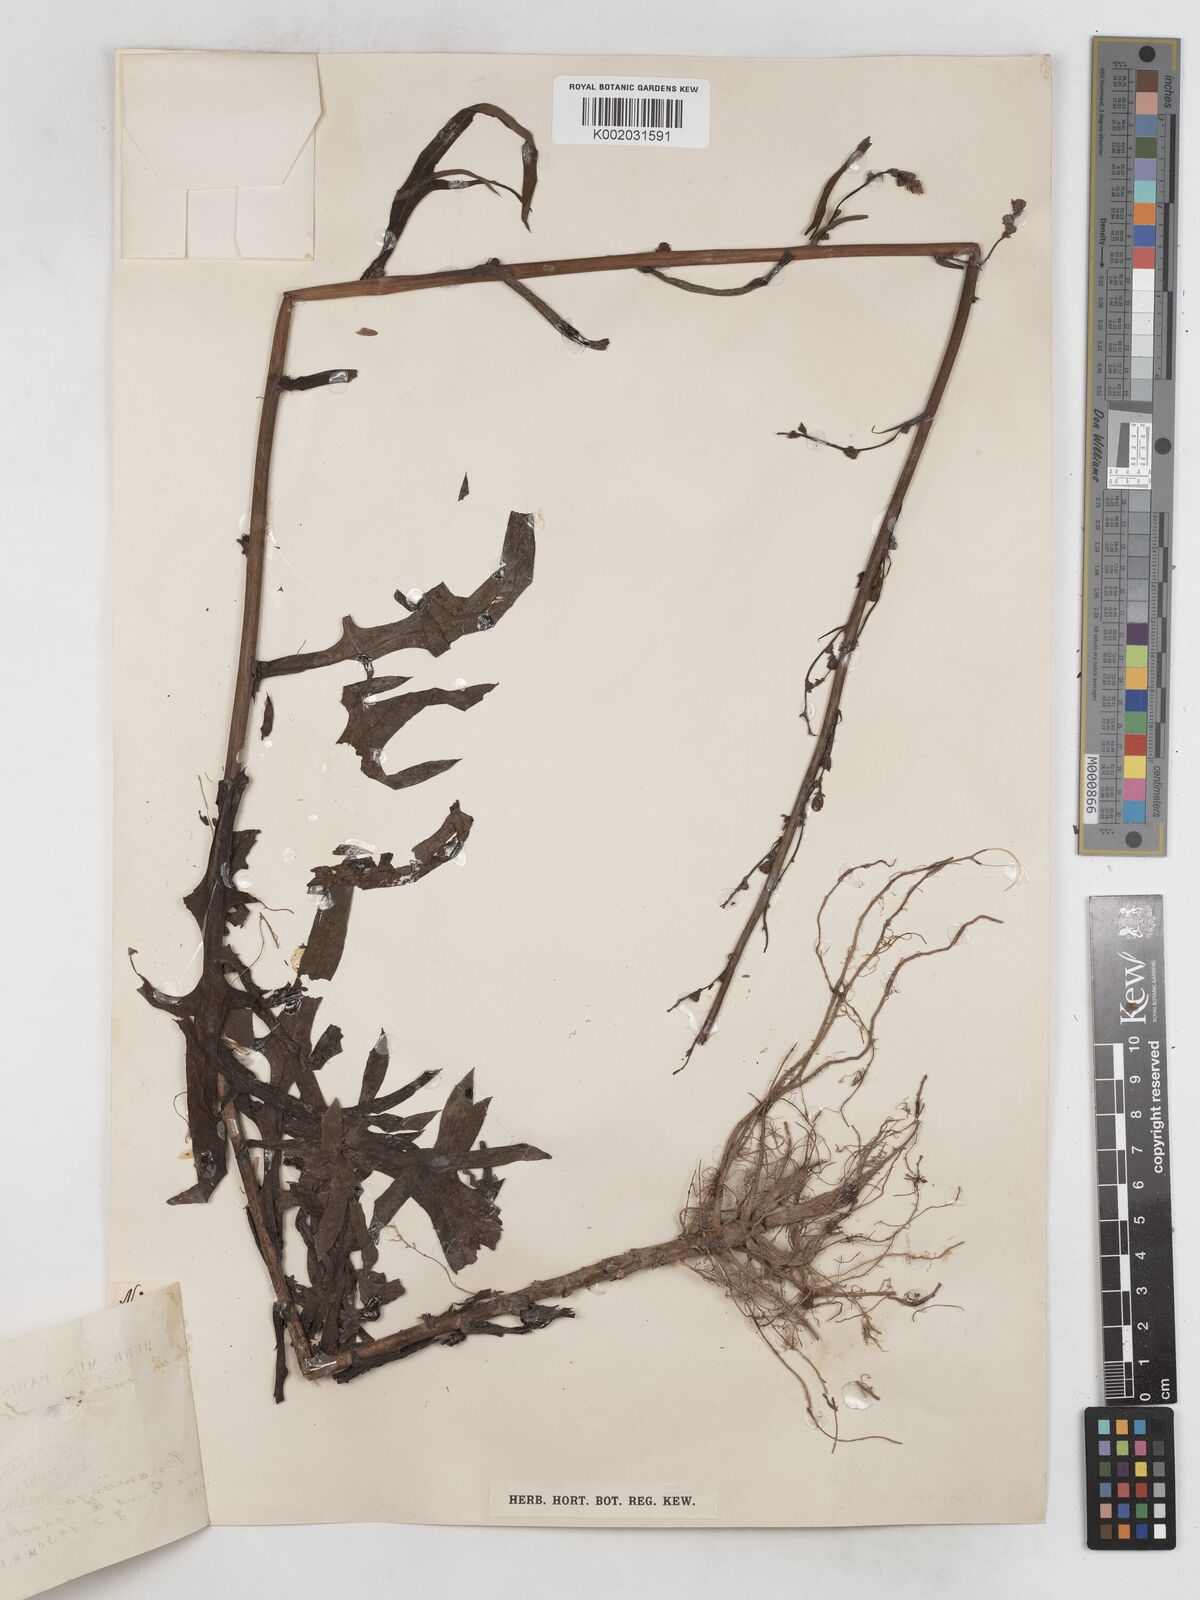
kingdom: Plantae
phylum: Tracheophyta
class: Magnoliopsida
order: Asterales
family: Asteraceae
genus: Lactuca
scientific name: Lactuca
